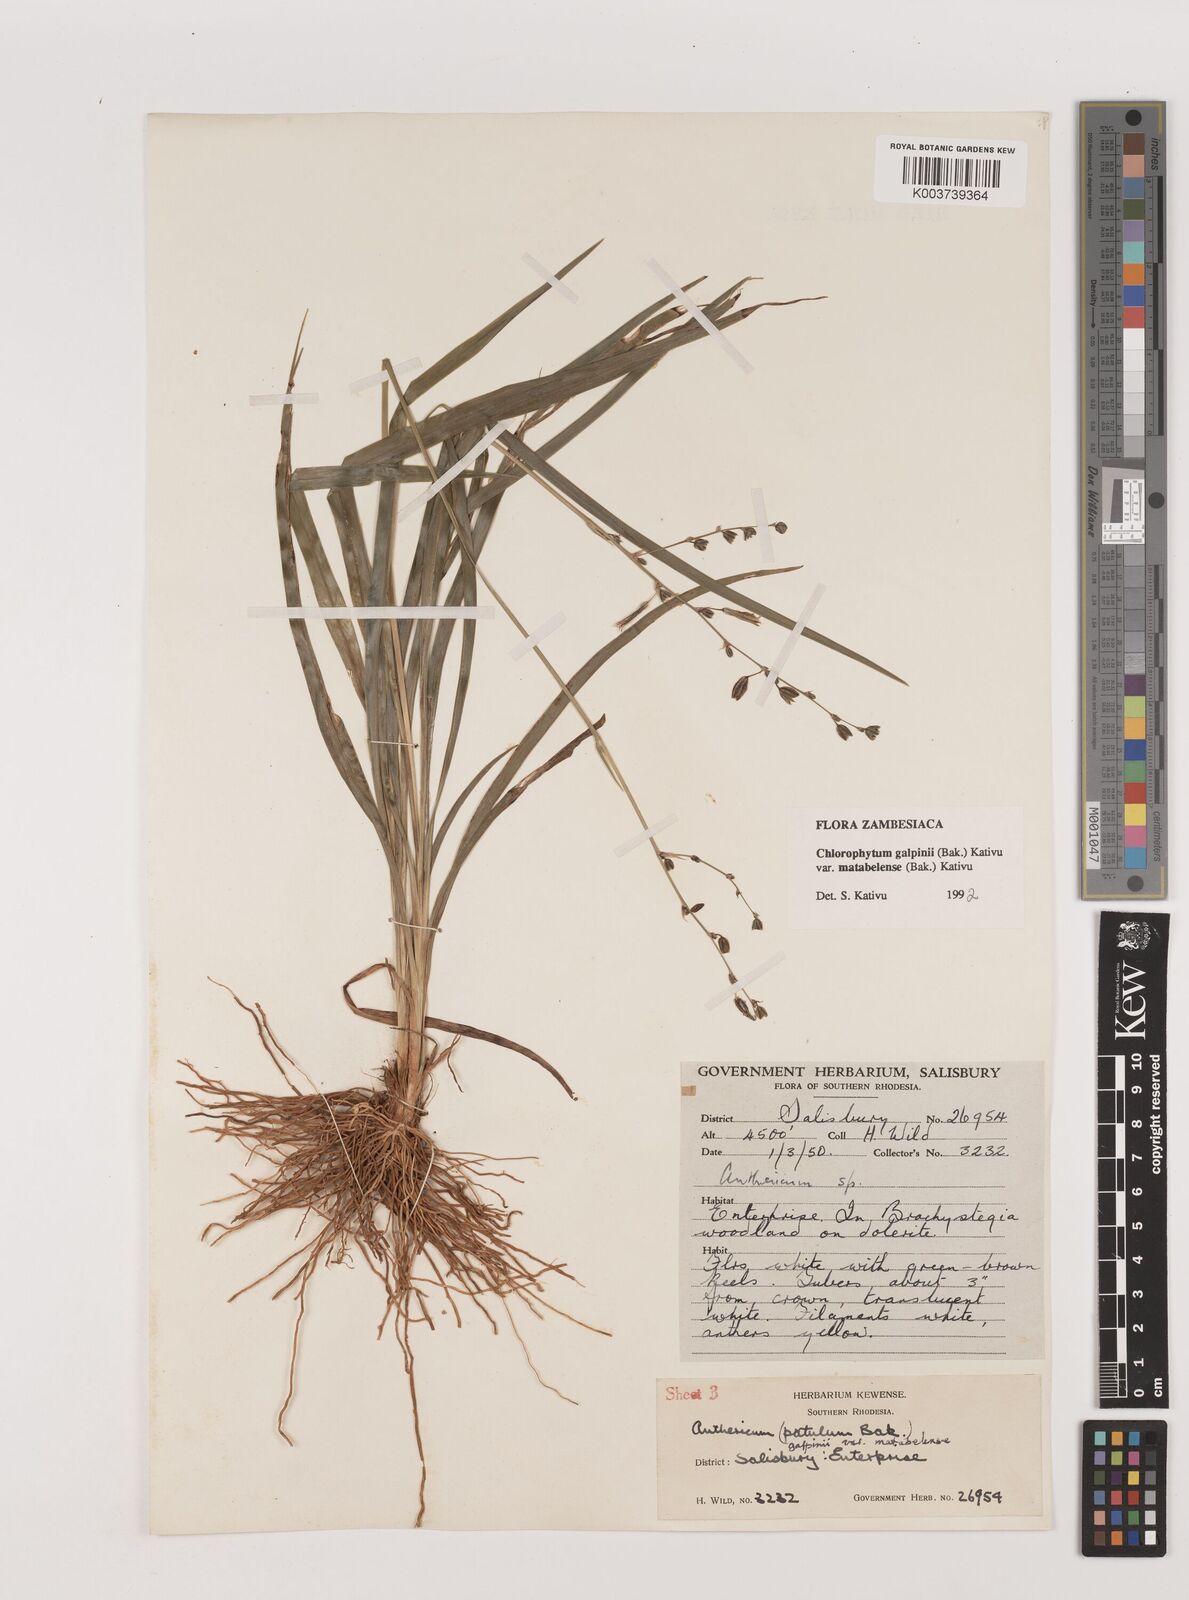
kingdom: Plantae
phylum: Tracheophyta
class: Liliopsida
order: Asparagales
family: Asparagaceae
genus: Chlorophytum
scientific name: Chlorophytum galpinii
